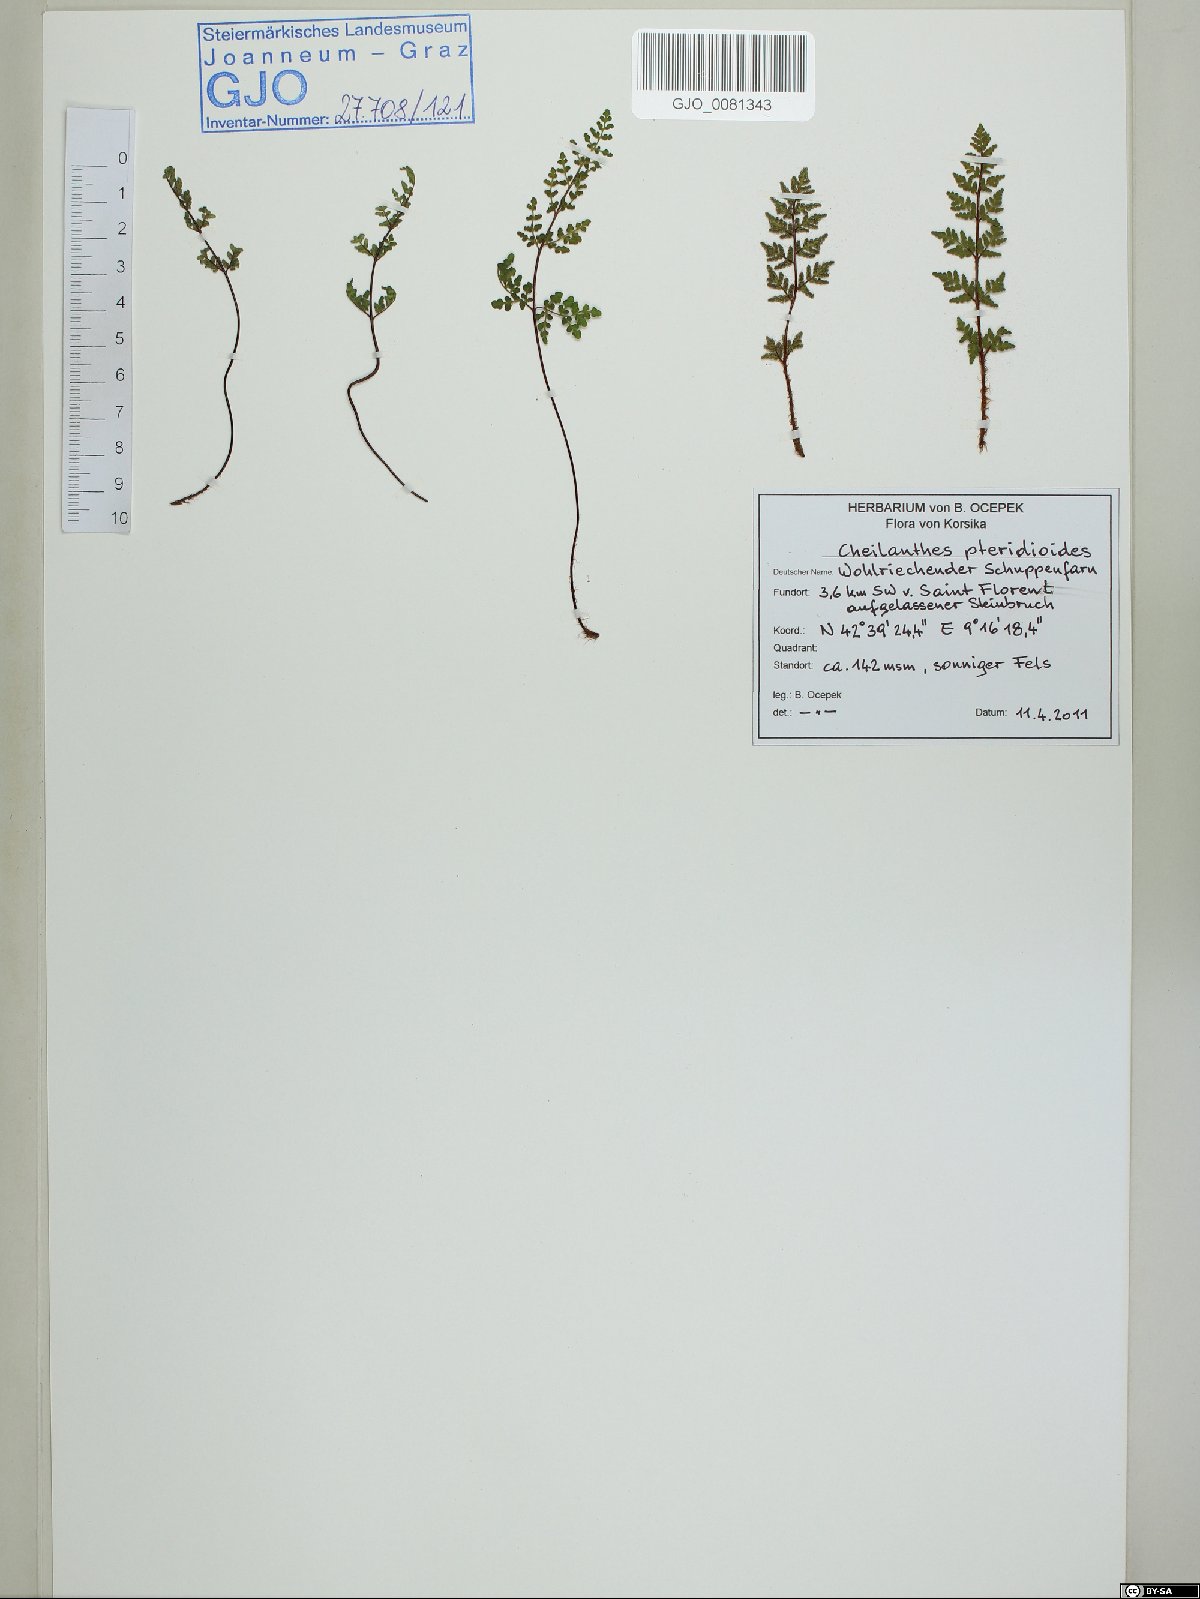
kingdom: Plantae
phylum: Tracheophyta
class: Polypodiopsida
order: Polypodiales
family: Pteridaceae
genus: Oeosporangium
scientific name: Oeosporangium pteridioides
